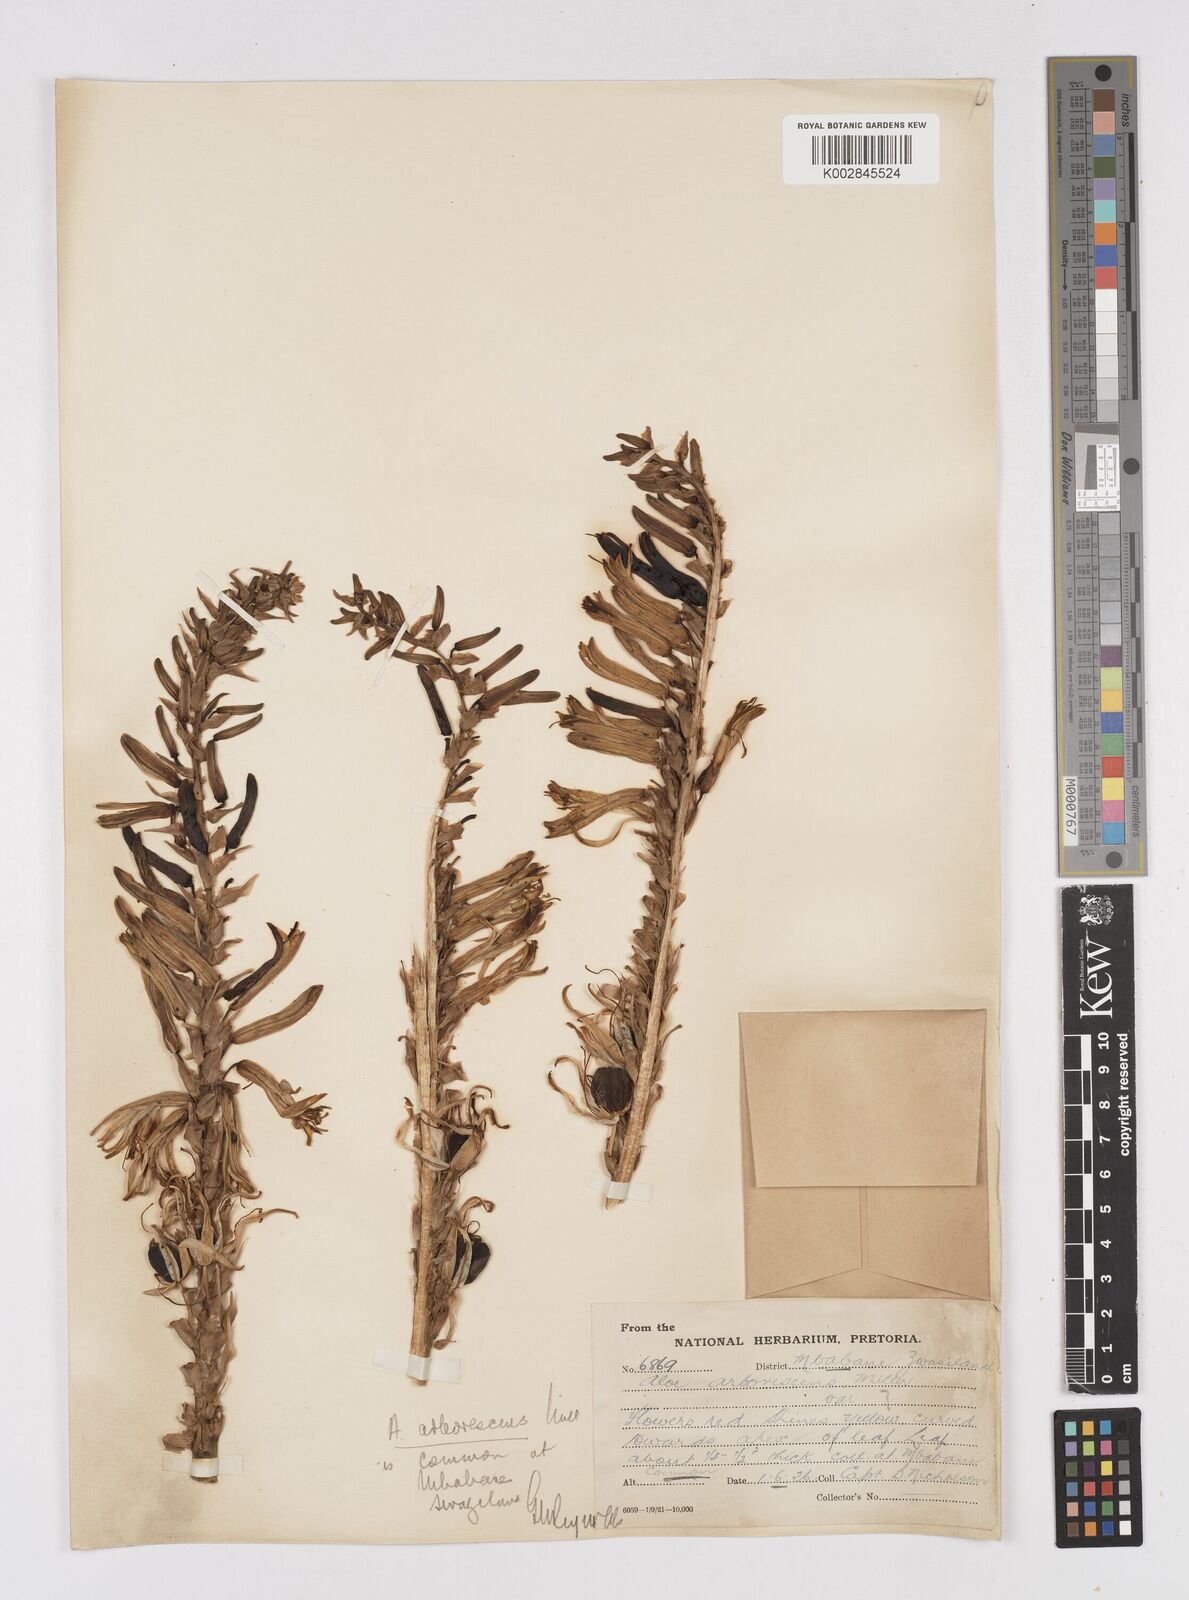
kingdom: Plantae
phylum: Tracheophyta
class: Liliopsida
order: Asparagales
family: Asphodelaceae
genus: Aloe
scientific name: Aloe arborescens
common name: Candelabra aloe
